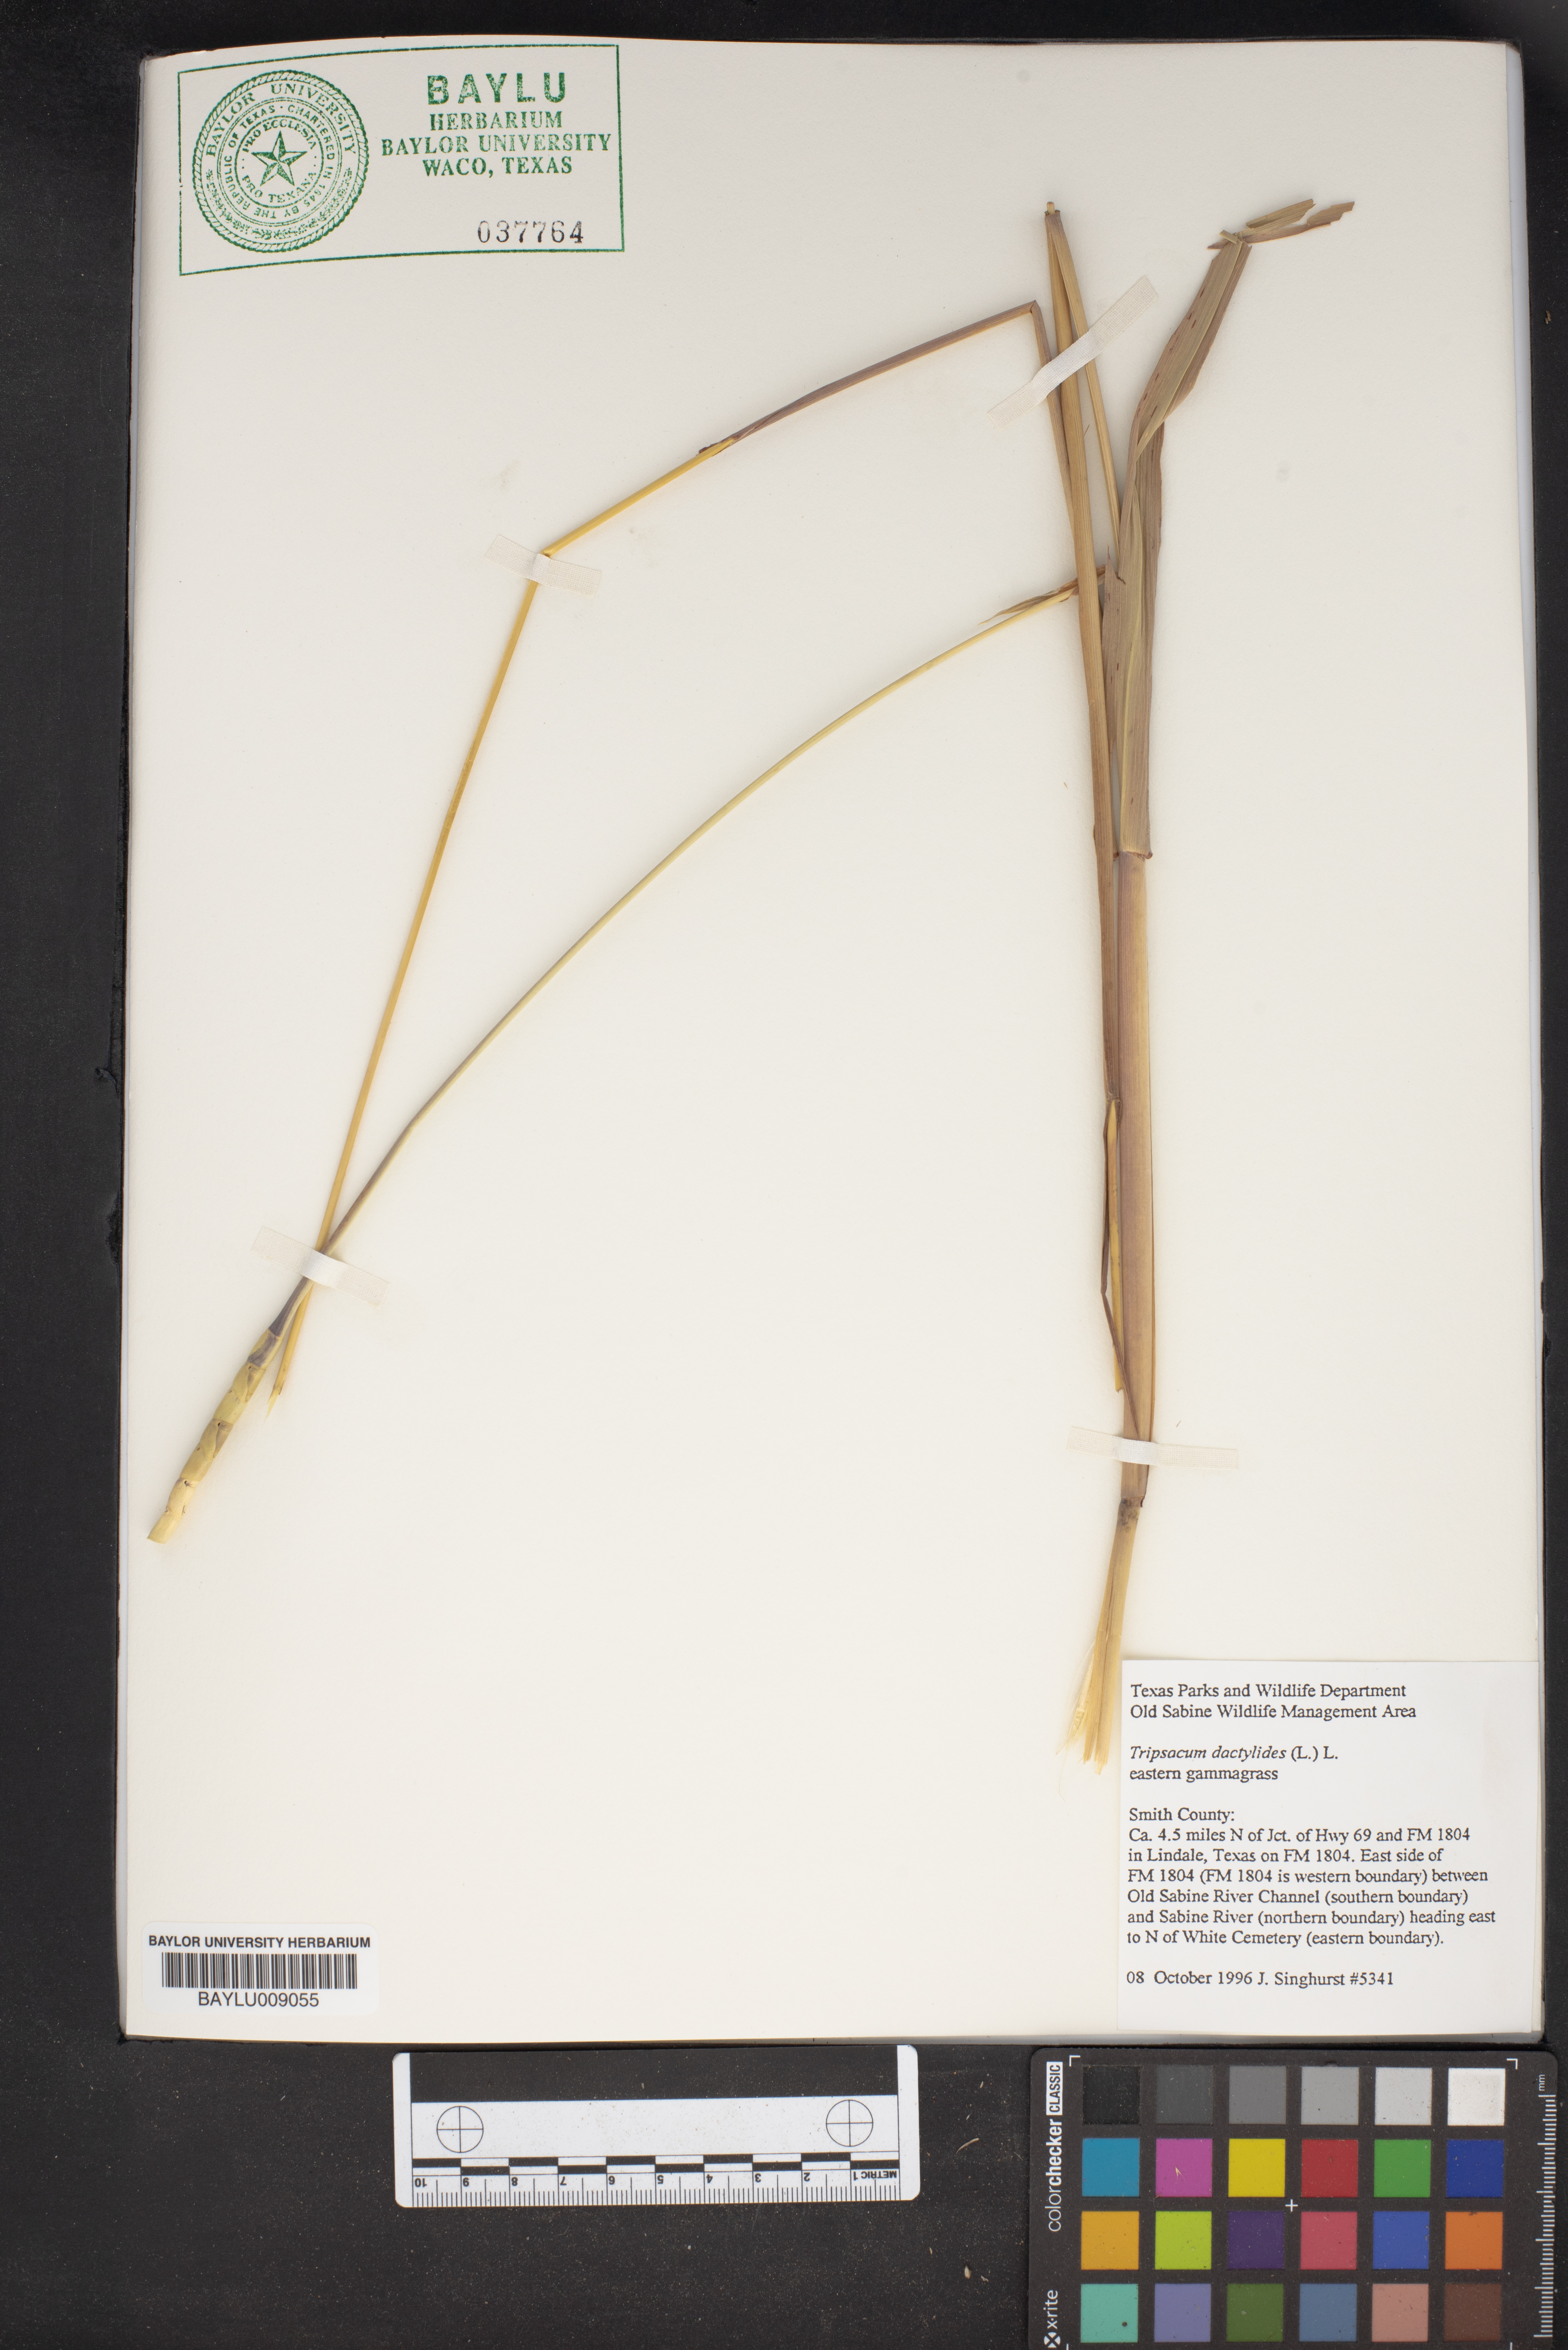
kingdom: Plantae
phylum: Tracheophyta
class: Liliopsida
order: Poales
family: Poaceae
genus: Tripsacum
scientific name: Tripsacum dactyloides
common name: Buffalo-grass
